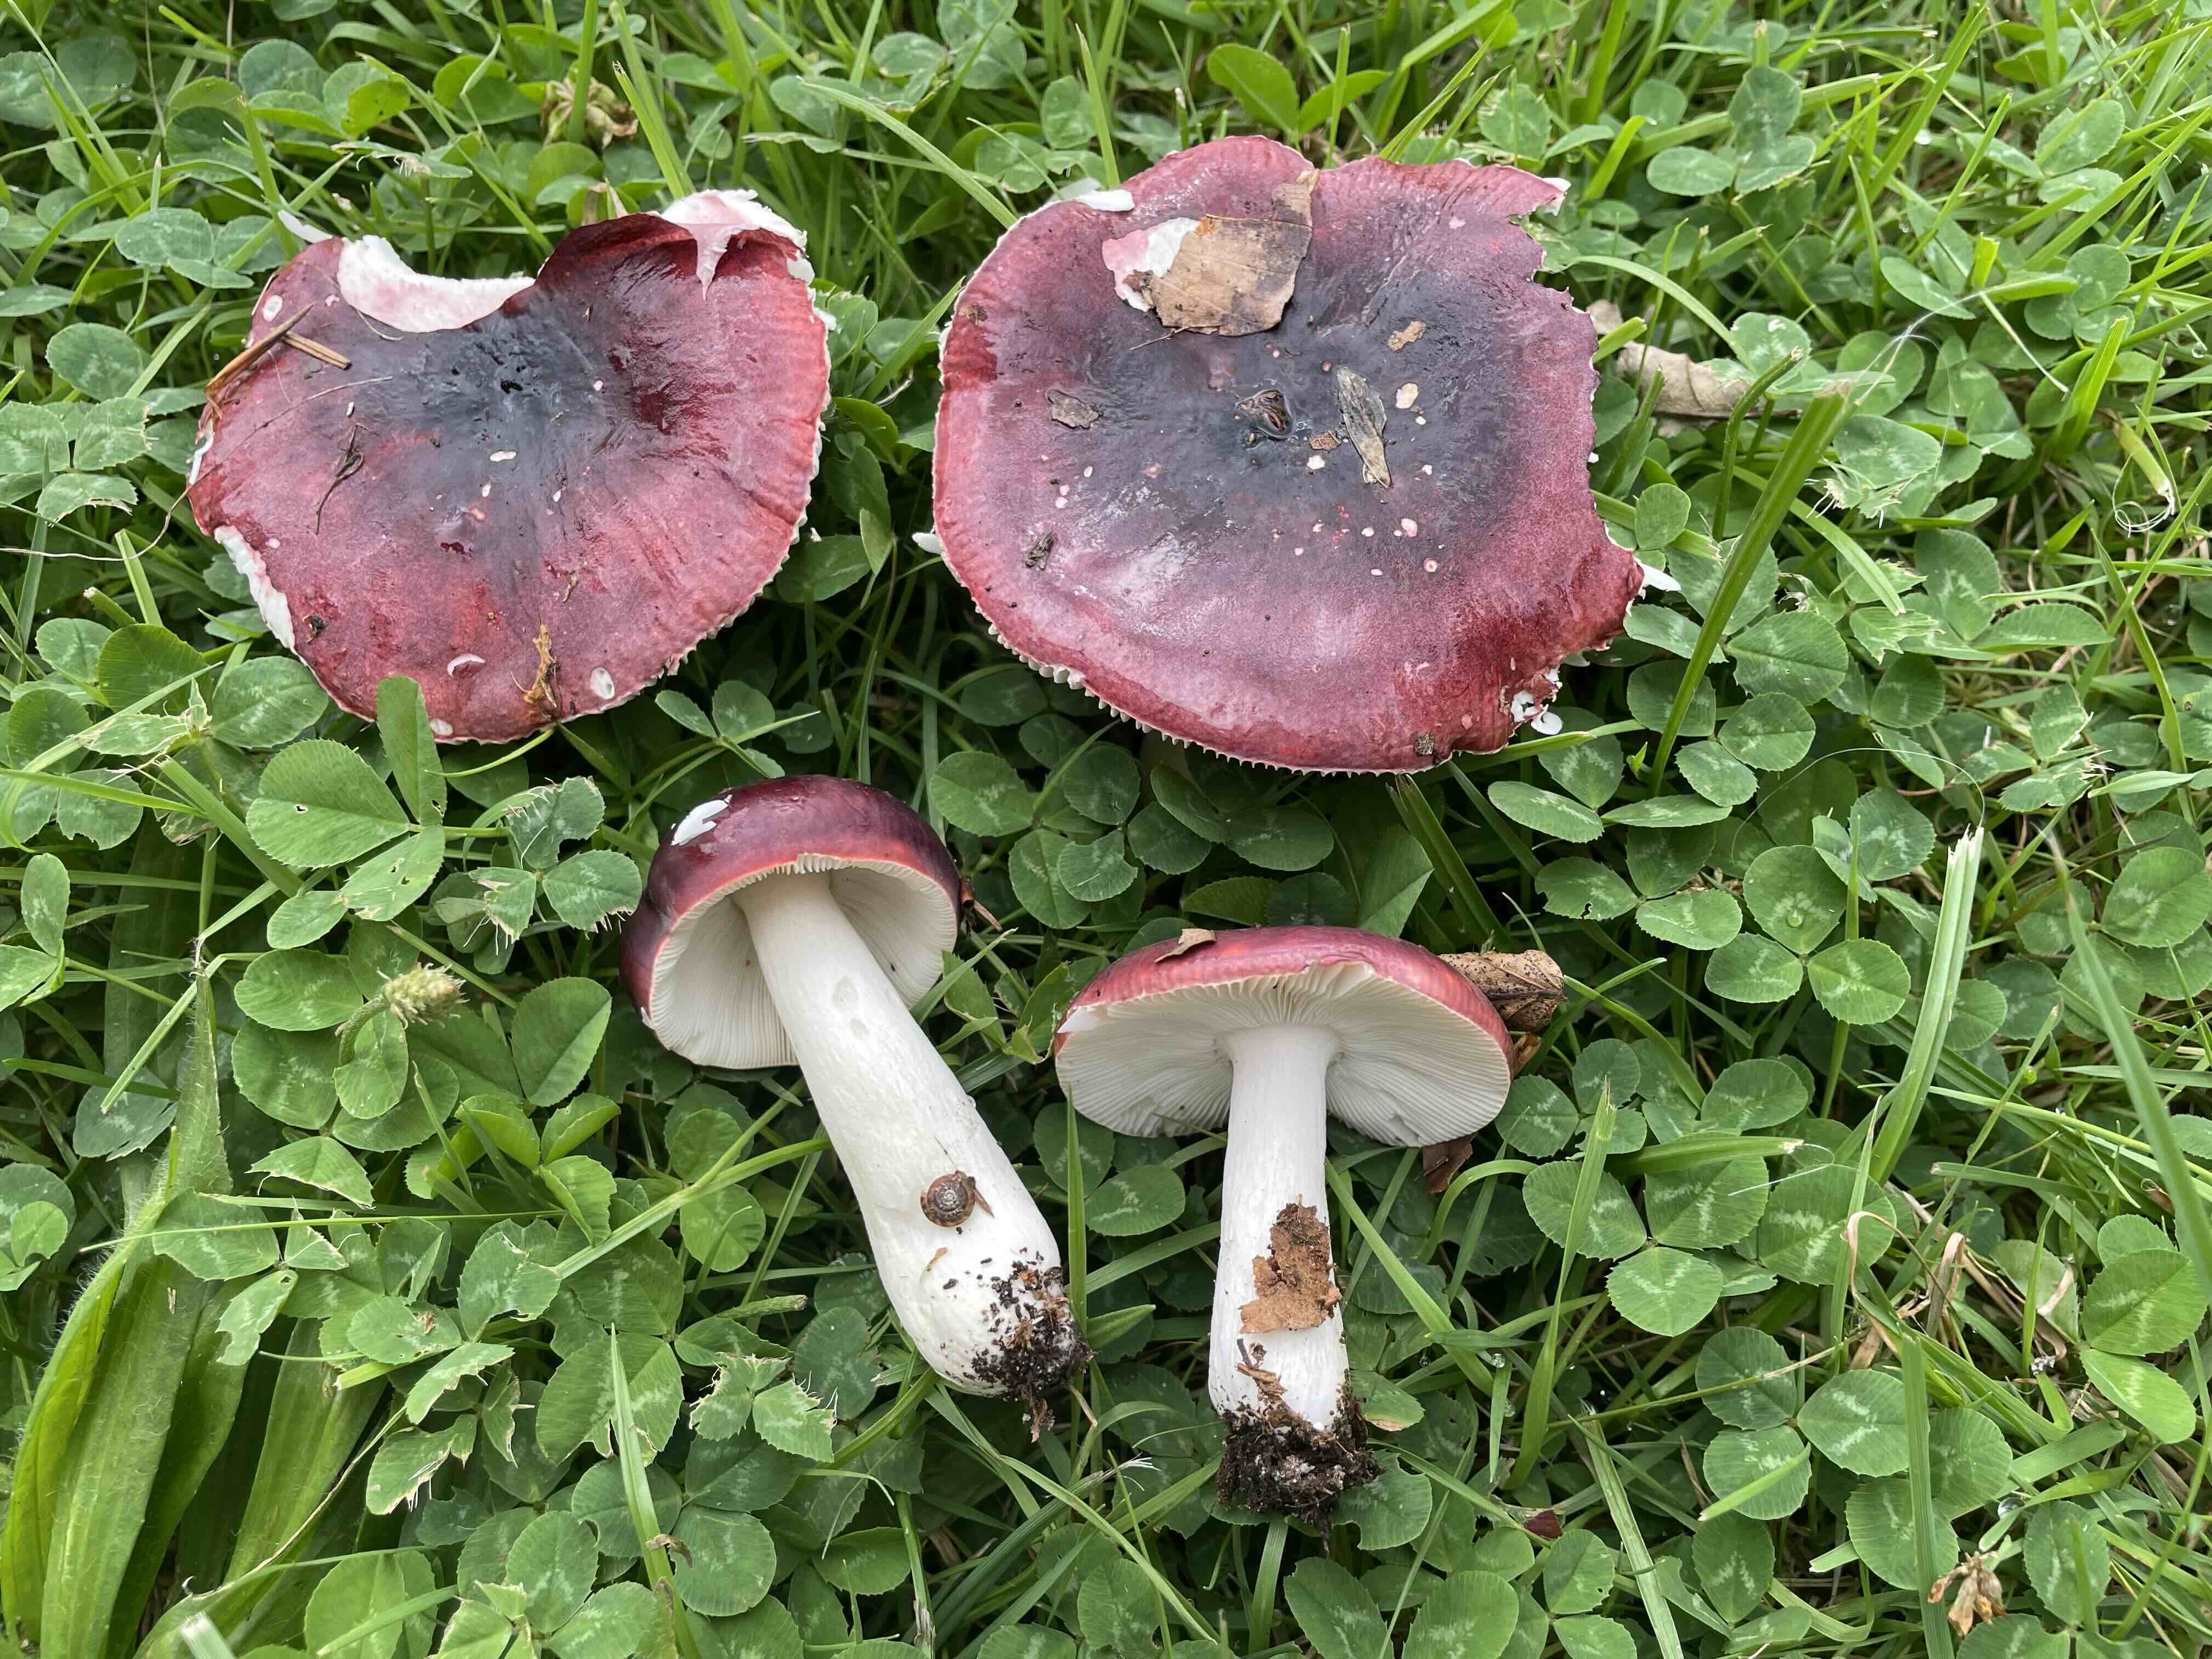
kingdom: Fungi
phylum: Basidiomycota
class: Agaricomycetes
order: Russulales
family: Russulaceae
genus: Russula
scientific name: Russula
